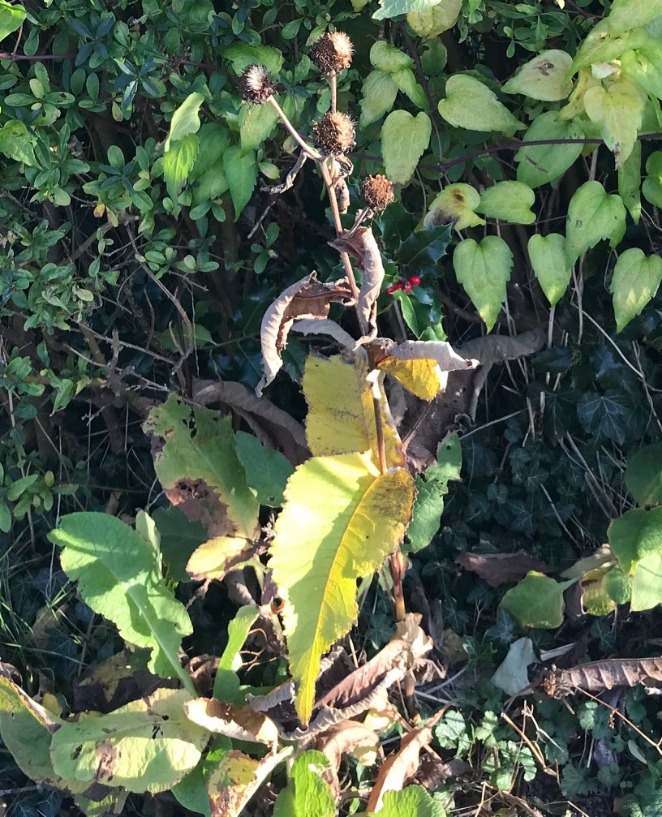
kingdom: Plantae
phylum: Tracheophyta
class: Magnoliopsida
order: Asterales
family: Asteraceae
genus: Inula
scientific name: Inula helenium
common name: Læge-alant
